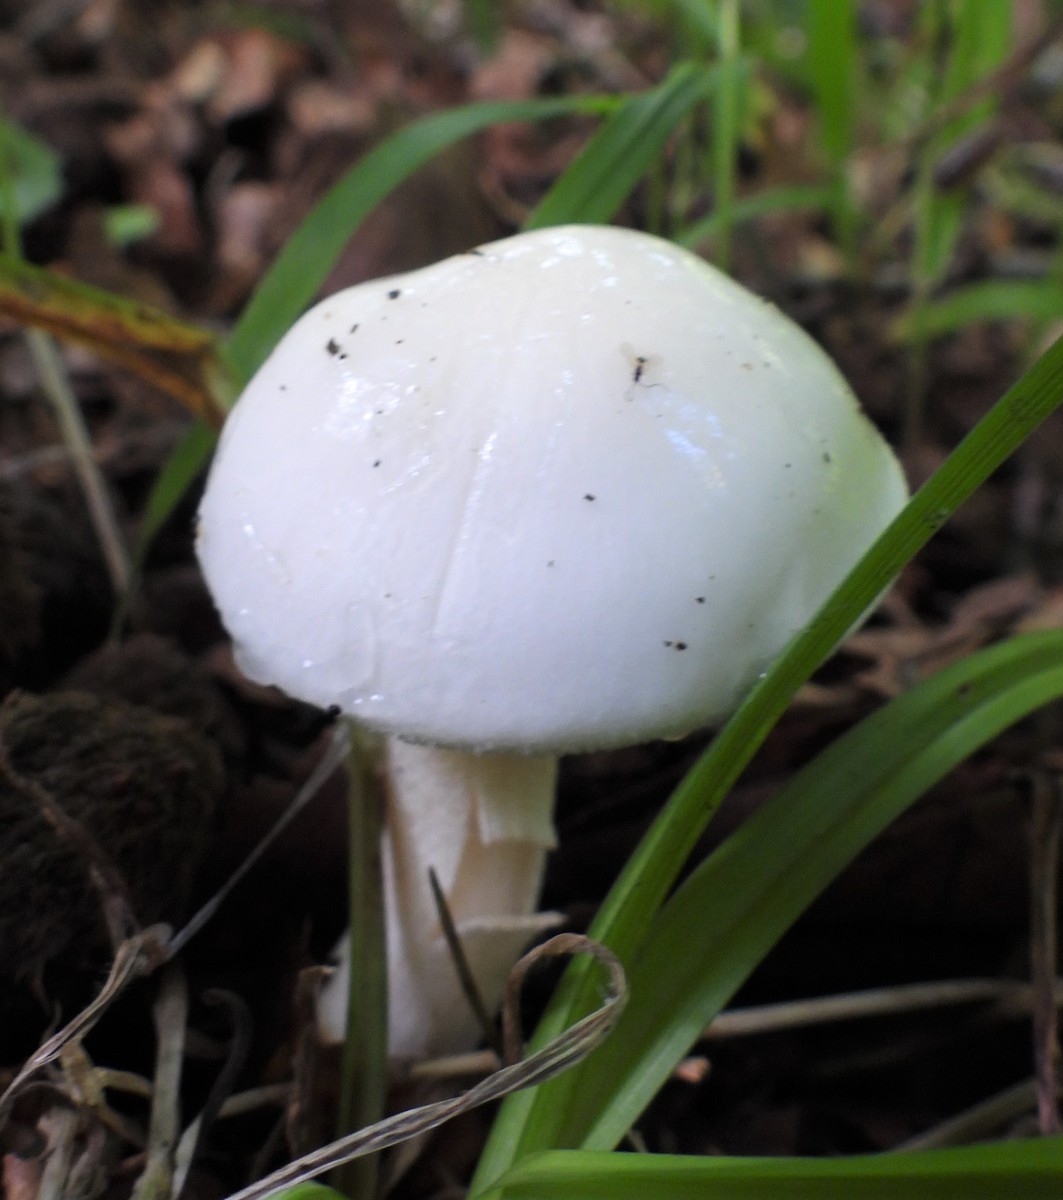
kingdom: Fungi
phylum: Basidiomycota
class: Agaricomycetes
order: Agaricales
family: Hygrophoraceae
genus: Hygrophorus
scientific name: Hygrophorus eburneus
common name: elfenbens-sneglehat
